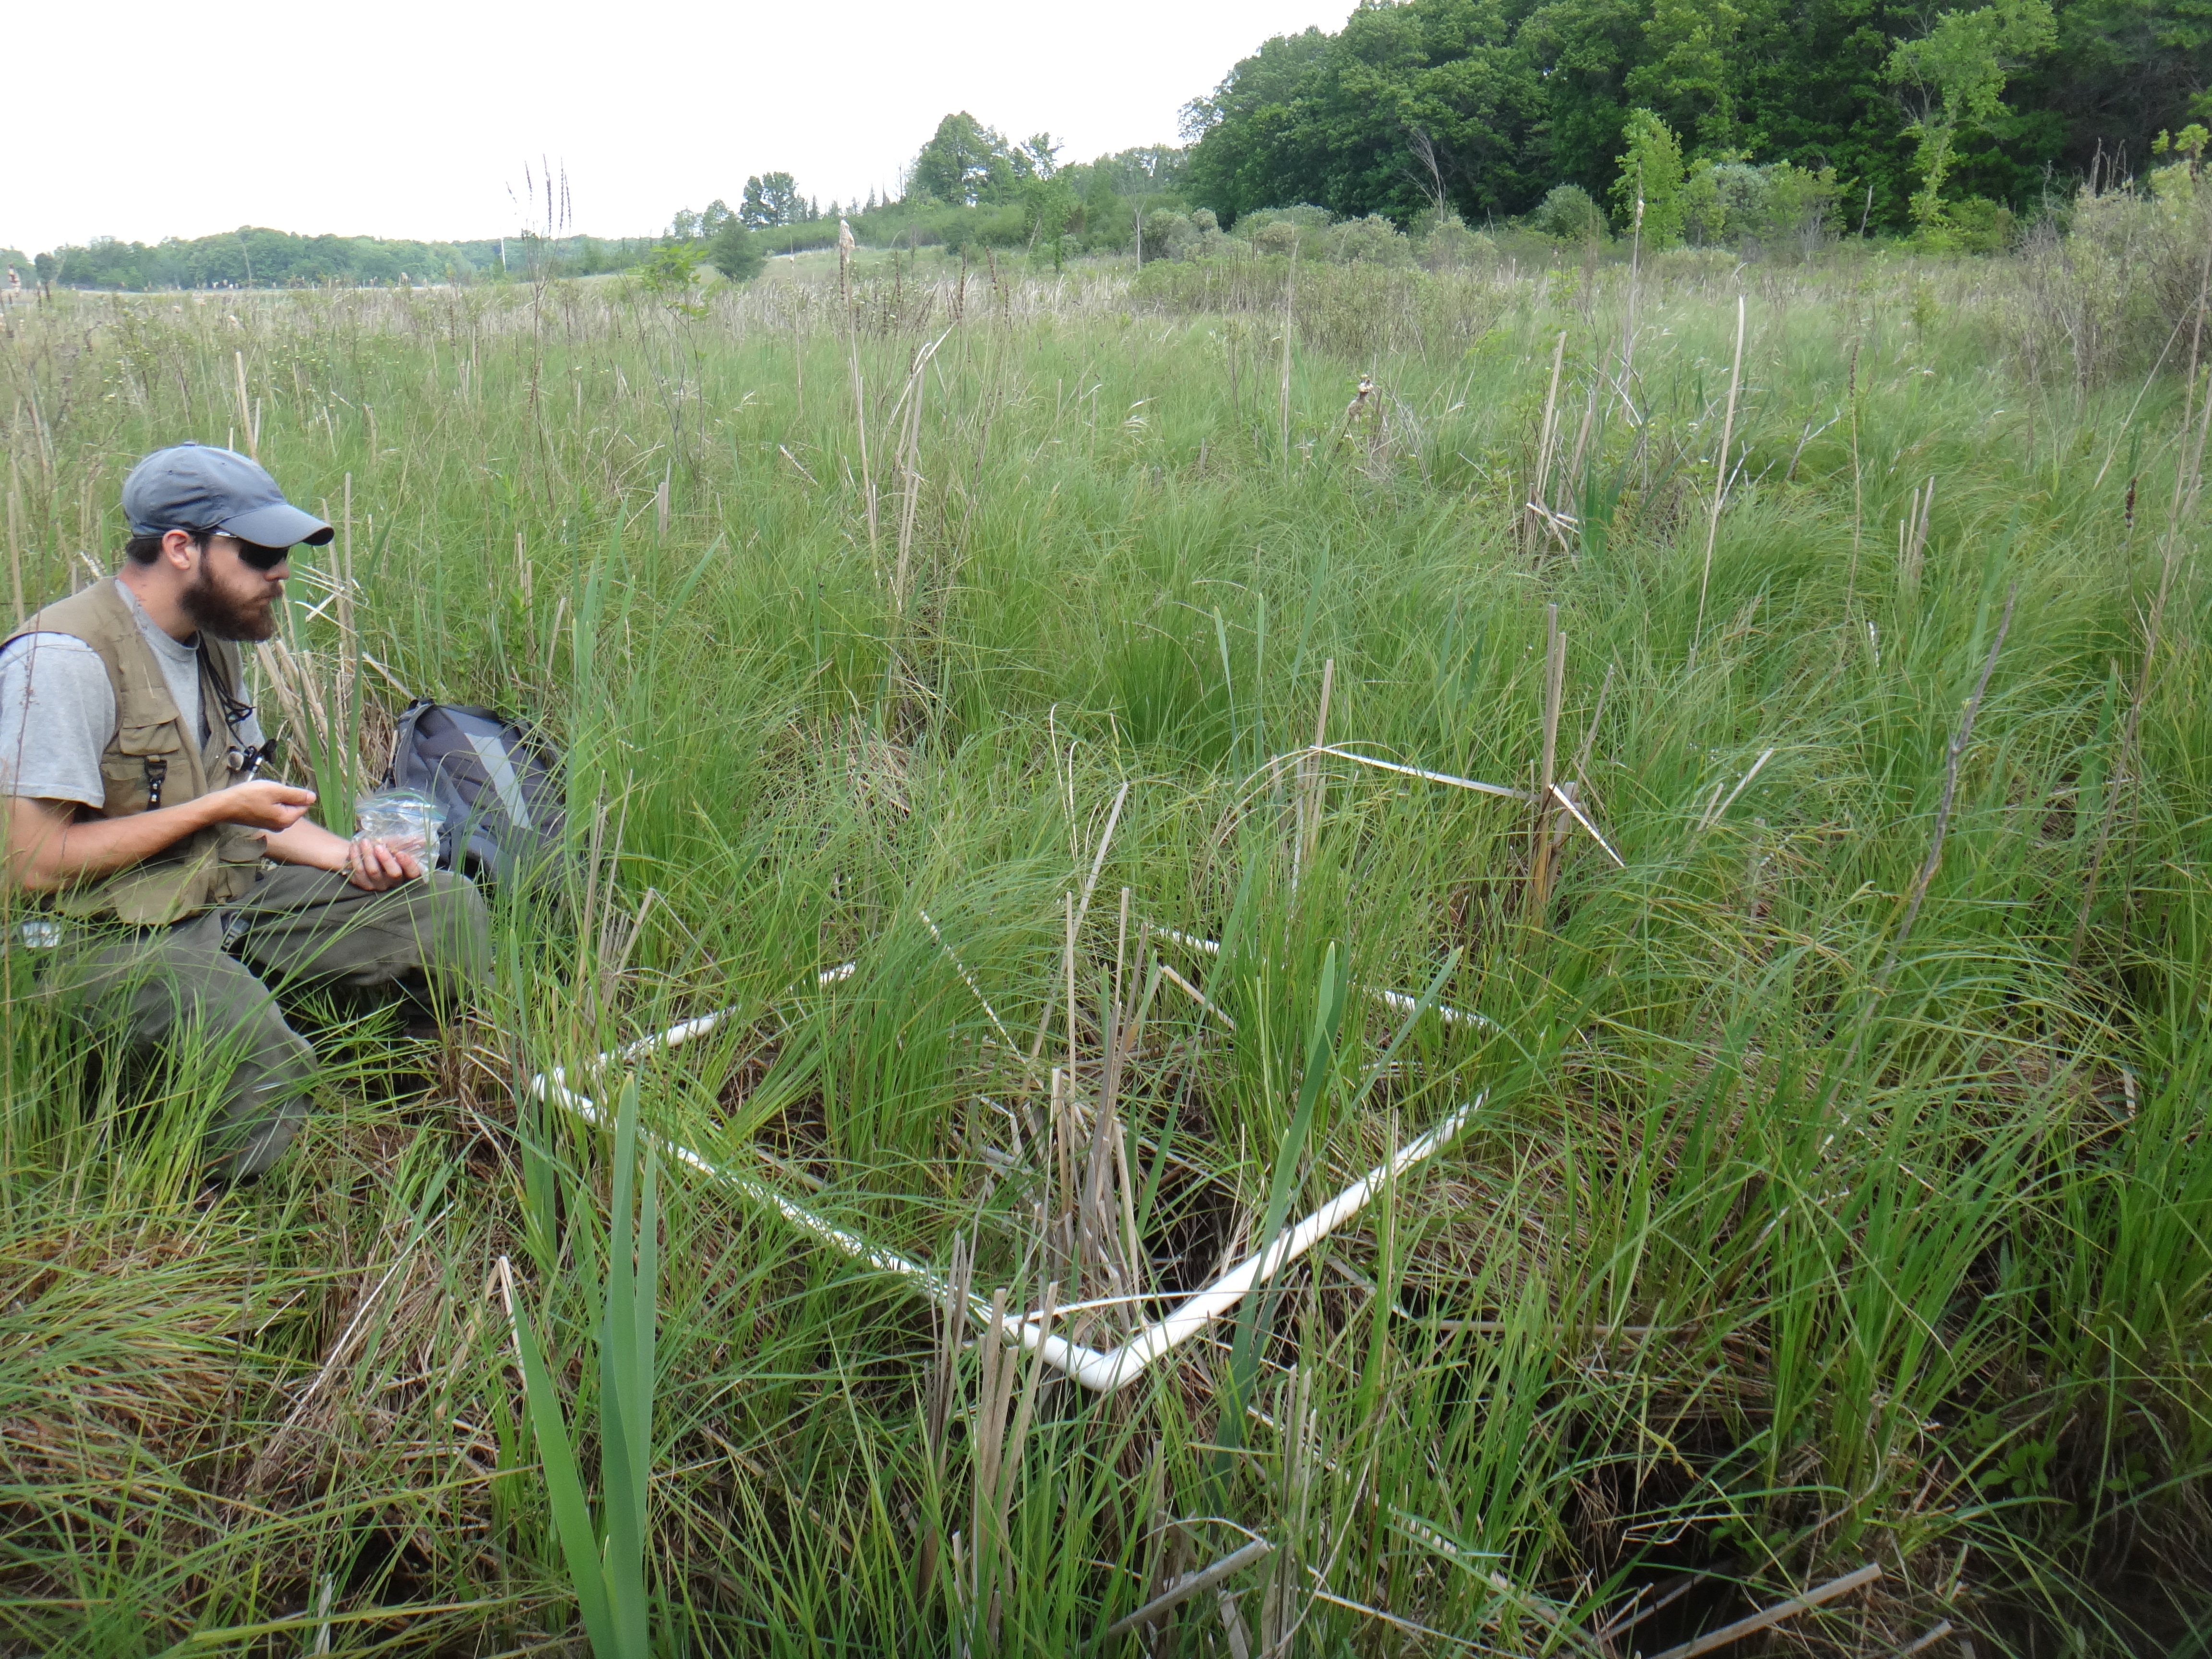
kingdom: Plantae
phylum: Tracheophyta
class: Magnoliopsida
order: Caryophyllales
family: Polygonaceae
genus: Persicaria
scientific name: Persicaria amphibia
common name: Amphibious bistort
